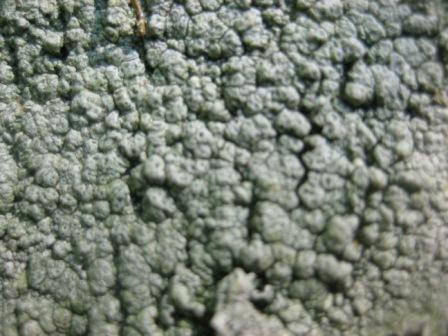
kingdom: Fungi
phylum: Ascomycota
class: Lecanoromycetes
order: Pertusariales
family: Pertusariaceae
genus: Pertusaria
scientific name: Pertusaria pertusa
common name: almindelig prikvortelav
